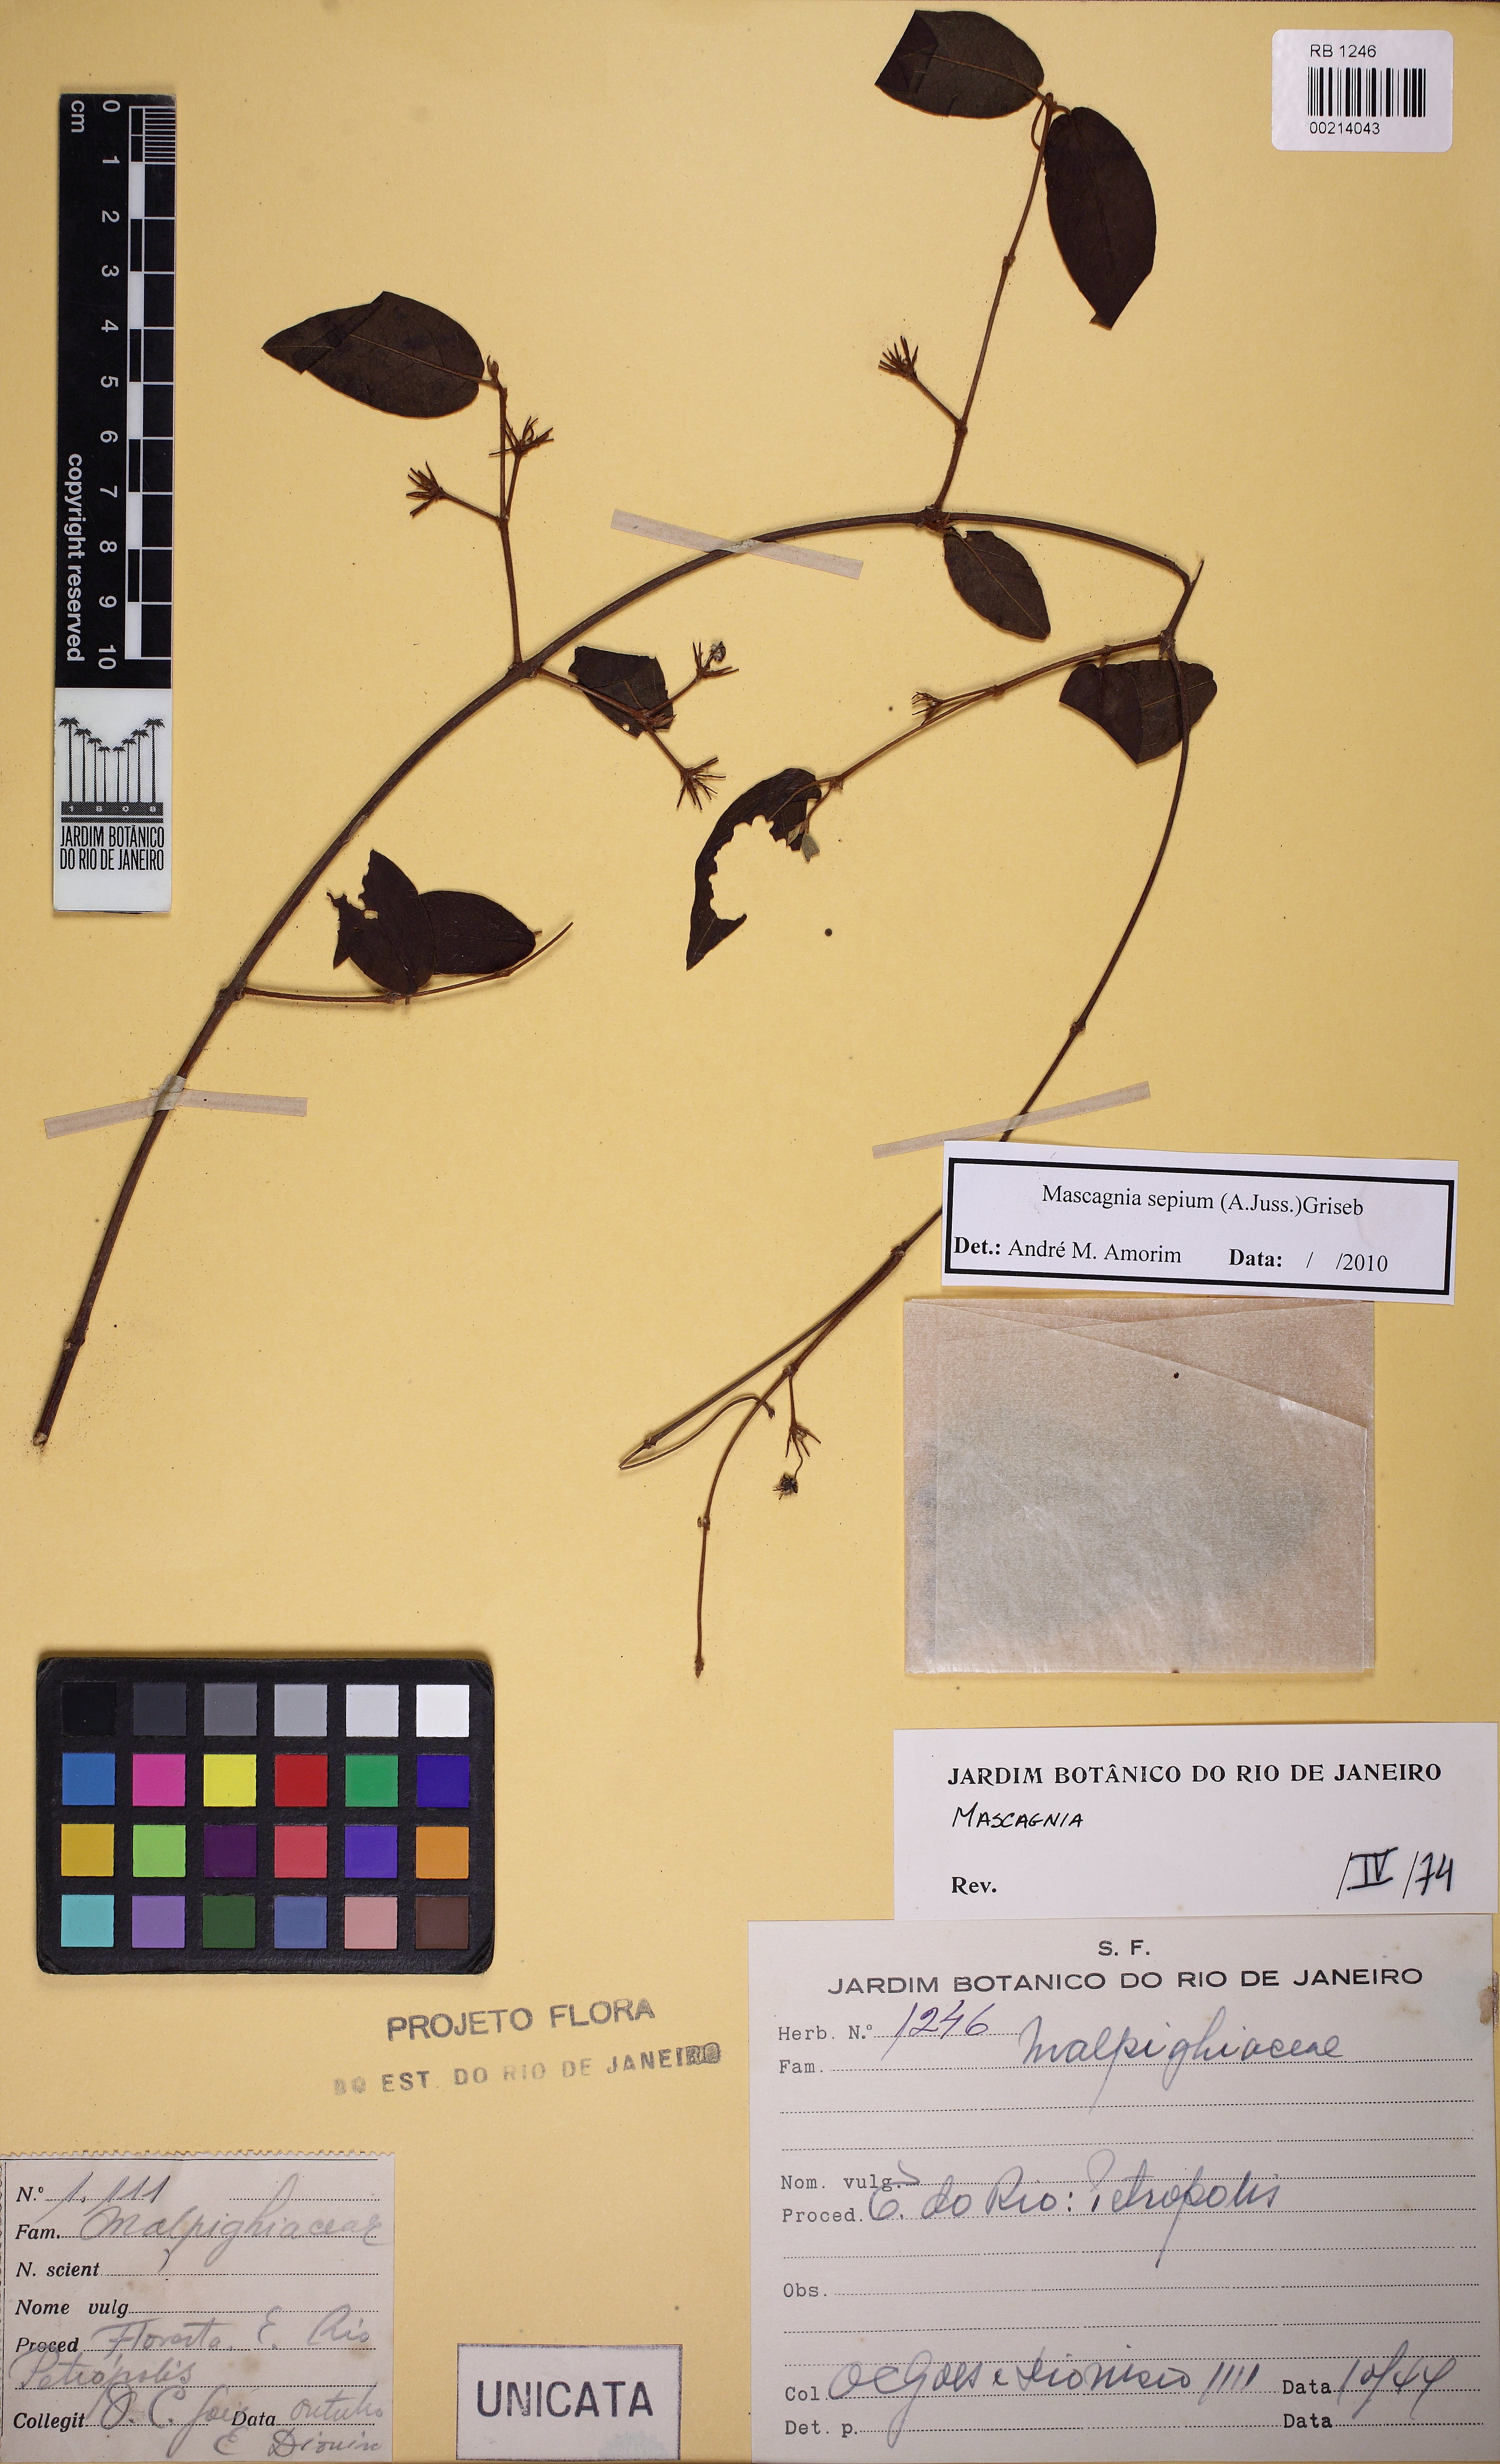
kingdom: Plantae
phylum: Tracheophyta
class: Magnoliopsida
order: Malpighiales
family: Malpighiaceae
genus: Mascagnia
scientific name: Mascagnia sepium
